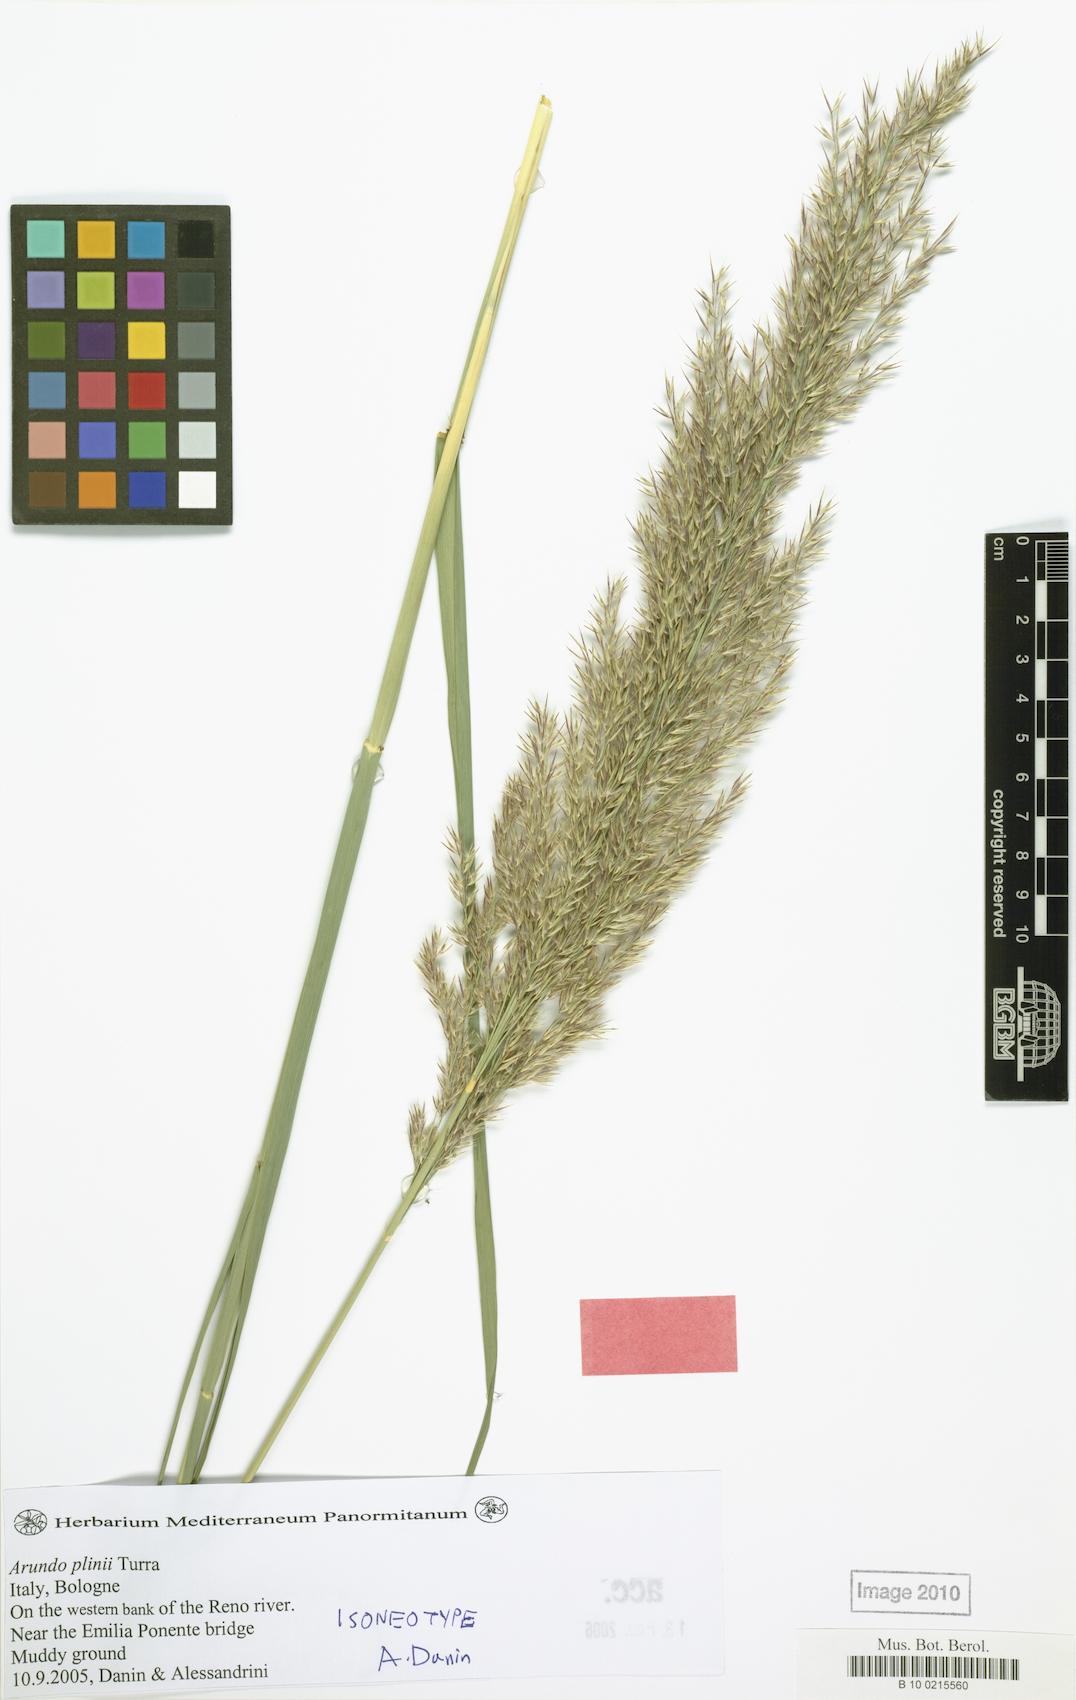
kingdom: Plantae
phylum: Tracheophyta
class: Liliopsida
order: Poales
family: Poaceae
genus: Arundo
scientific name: Arundo plinii
